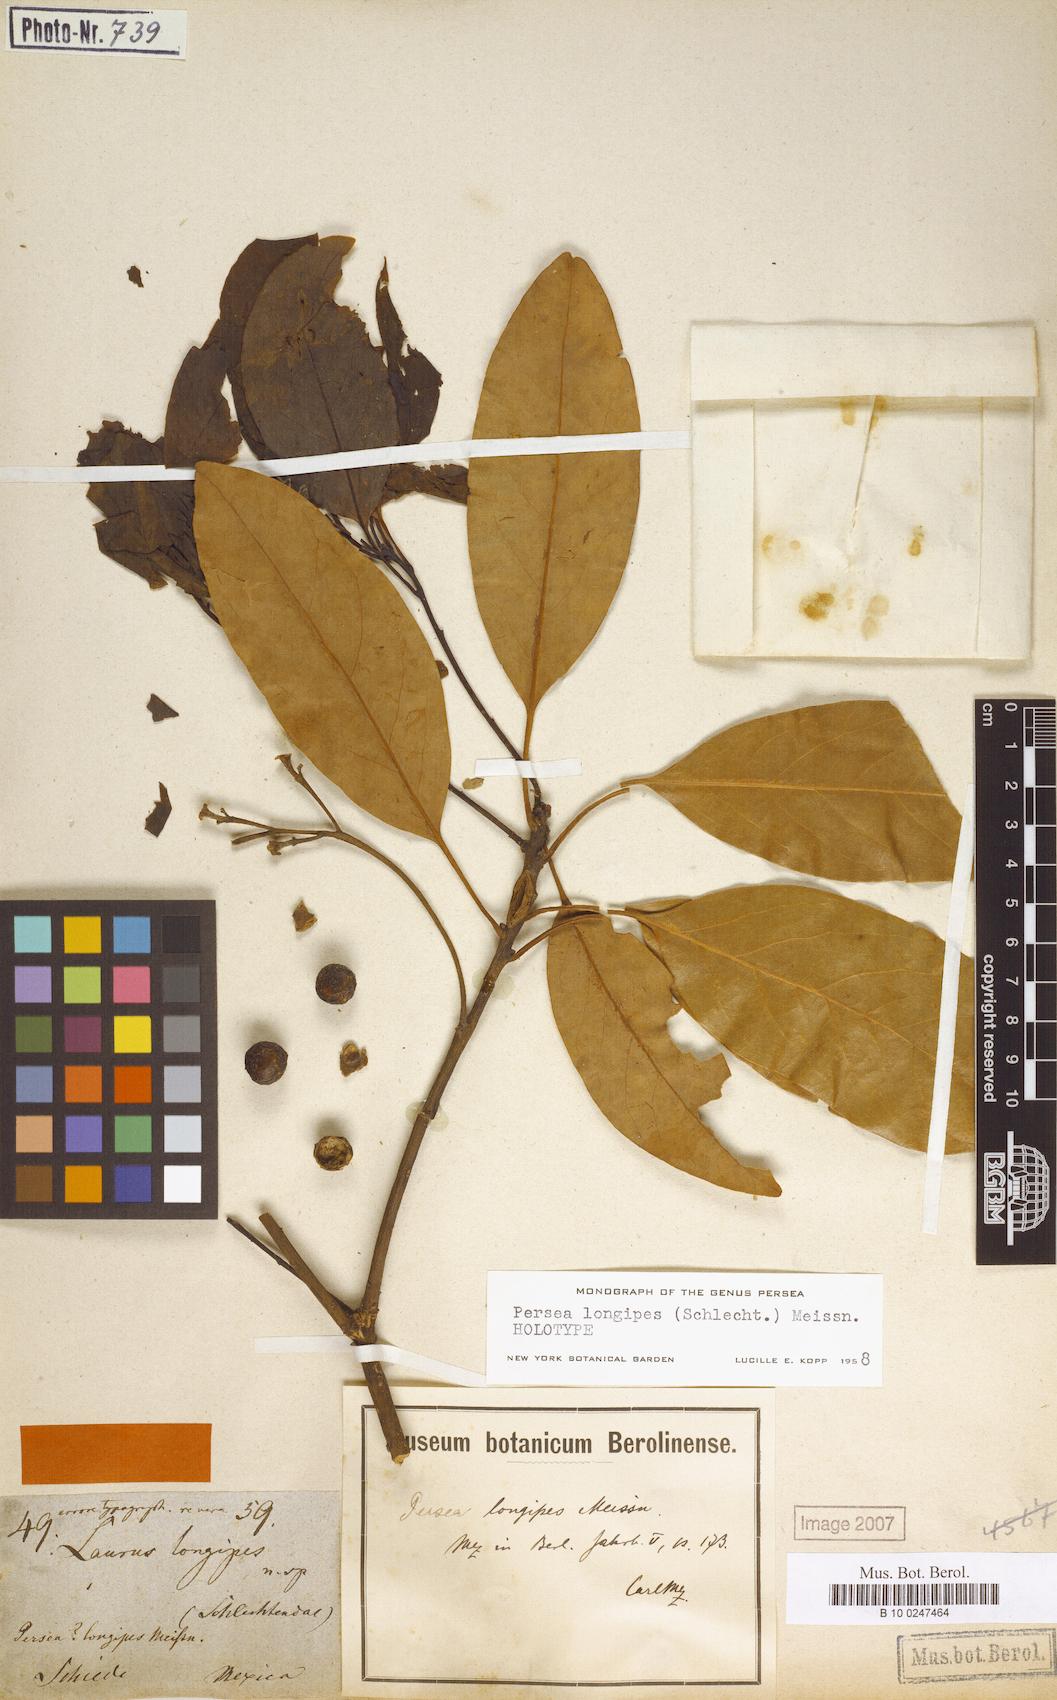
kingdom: Plantae
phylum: Tracheophyta
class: Magnoliopsida
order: Laurales
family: Lauraceae
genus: Persea
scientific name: Persea longipes
